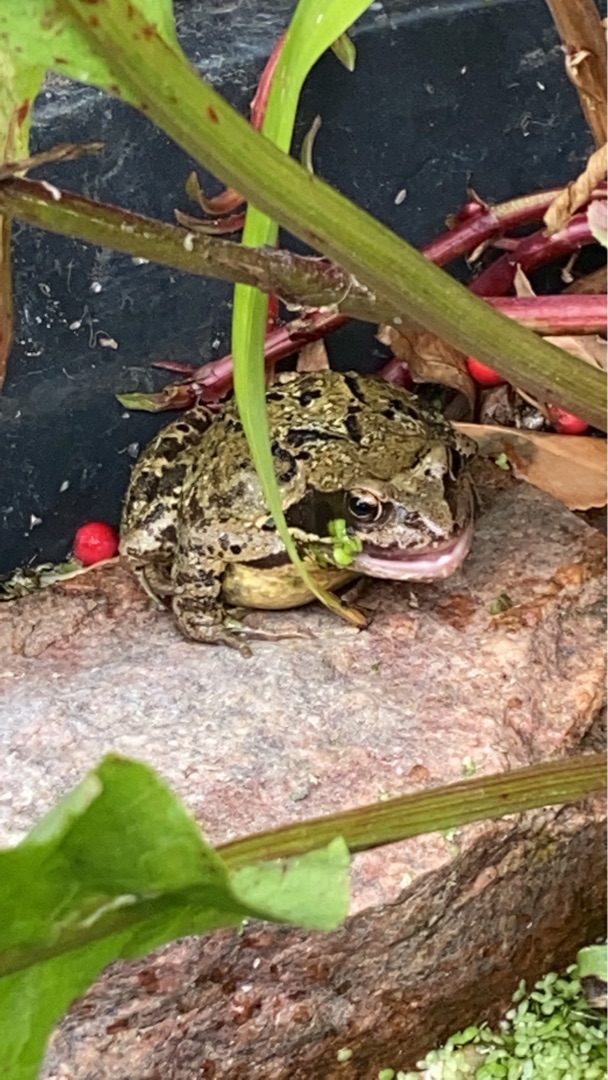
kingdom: Animalia
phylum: Chordata
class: Amphibia
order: Anura
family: Ranidae
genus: Rana
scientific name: Rana temporaria
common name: Butsnudet frø
